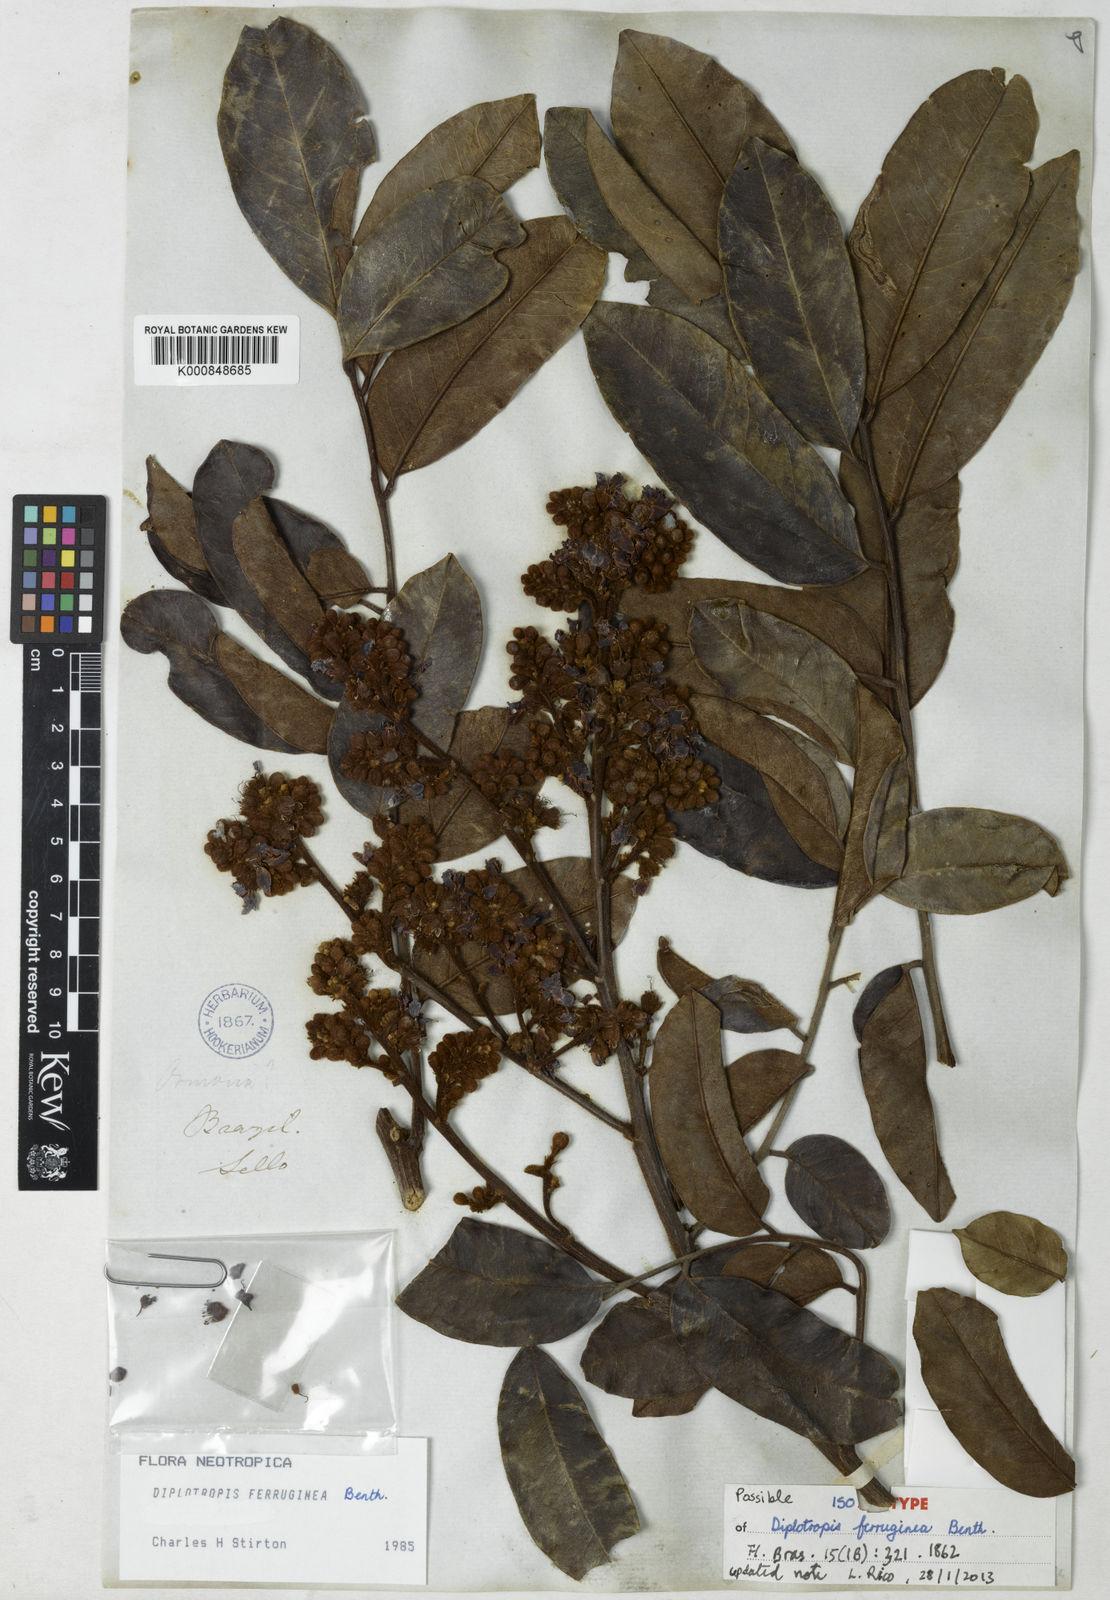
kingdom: Plantae
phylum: Tracheophyta
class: Magnoliopsida
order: Fabales
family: Fabaceae
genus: Diplotropis
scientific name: Diplotropis ferruginea
